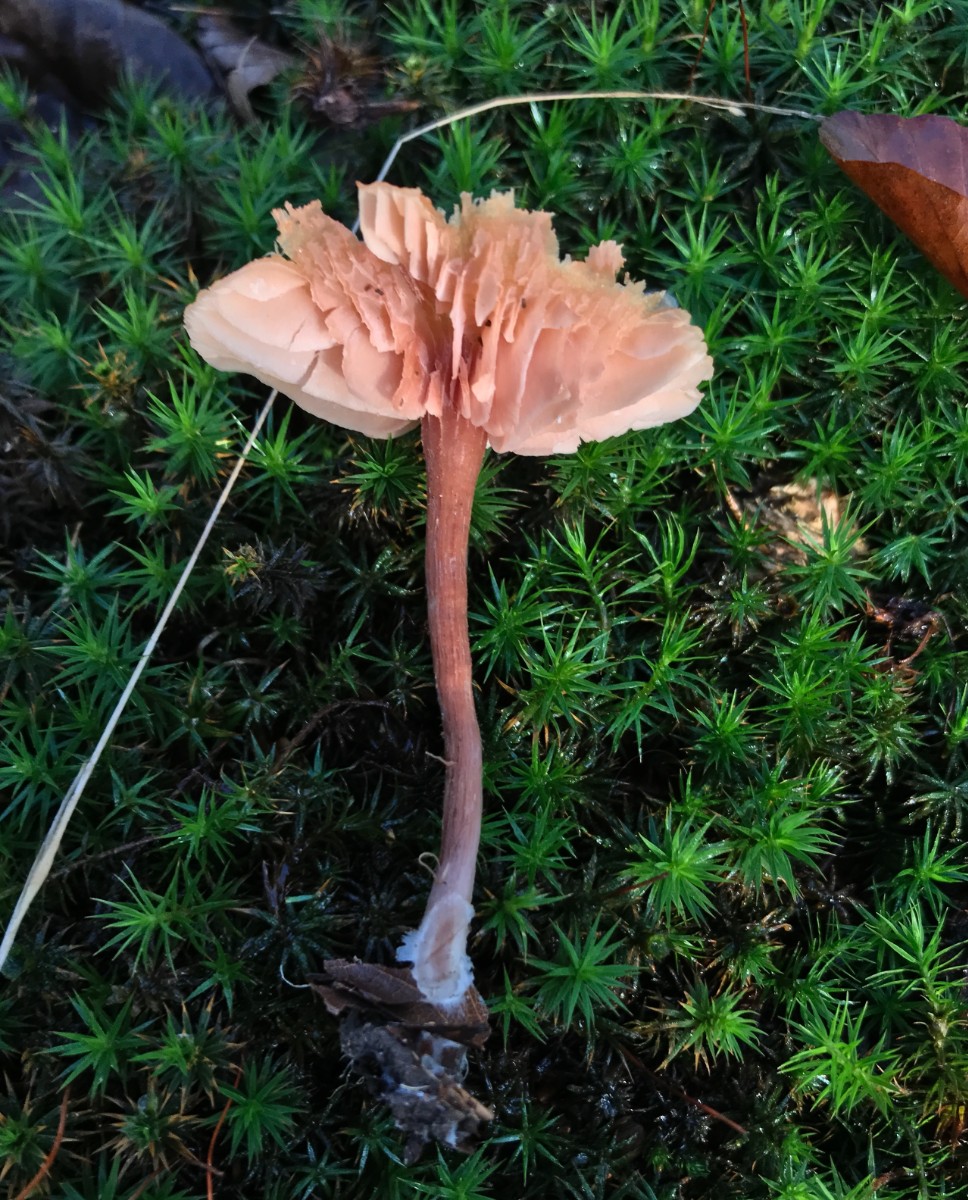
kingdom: Fungi
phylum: Basidiomycota
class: Agaricomycetes
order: Agaricales
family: Hydnangiaceae
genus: Laccaria
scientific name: Laccaria laccata
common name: rød ametysthat
